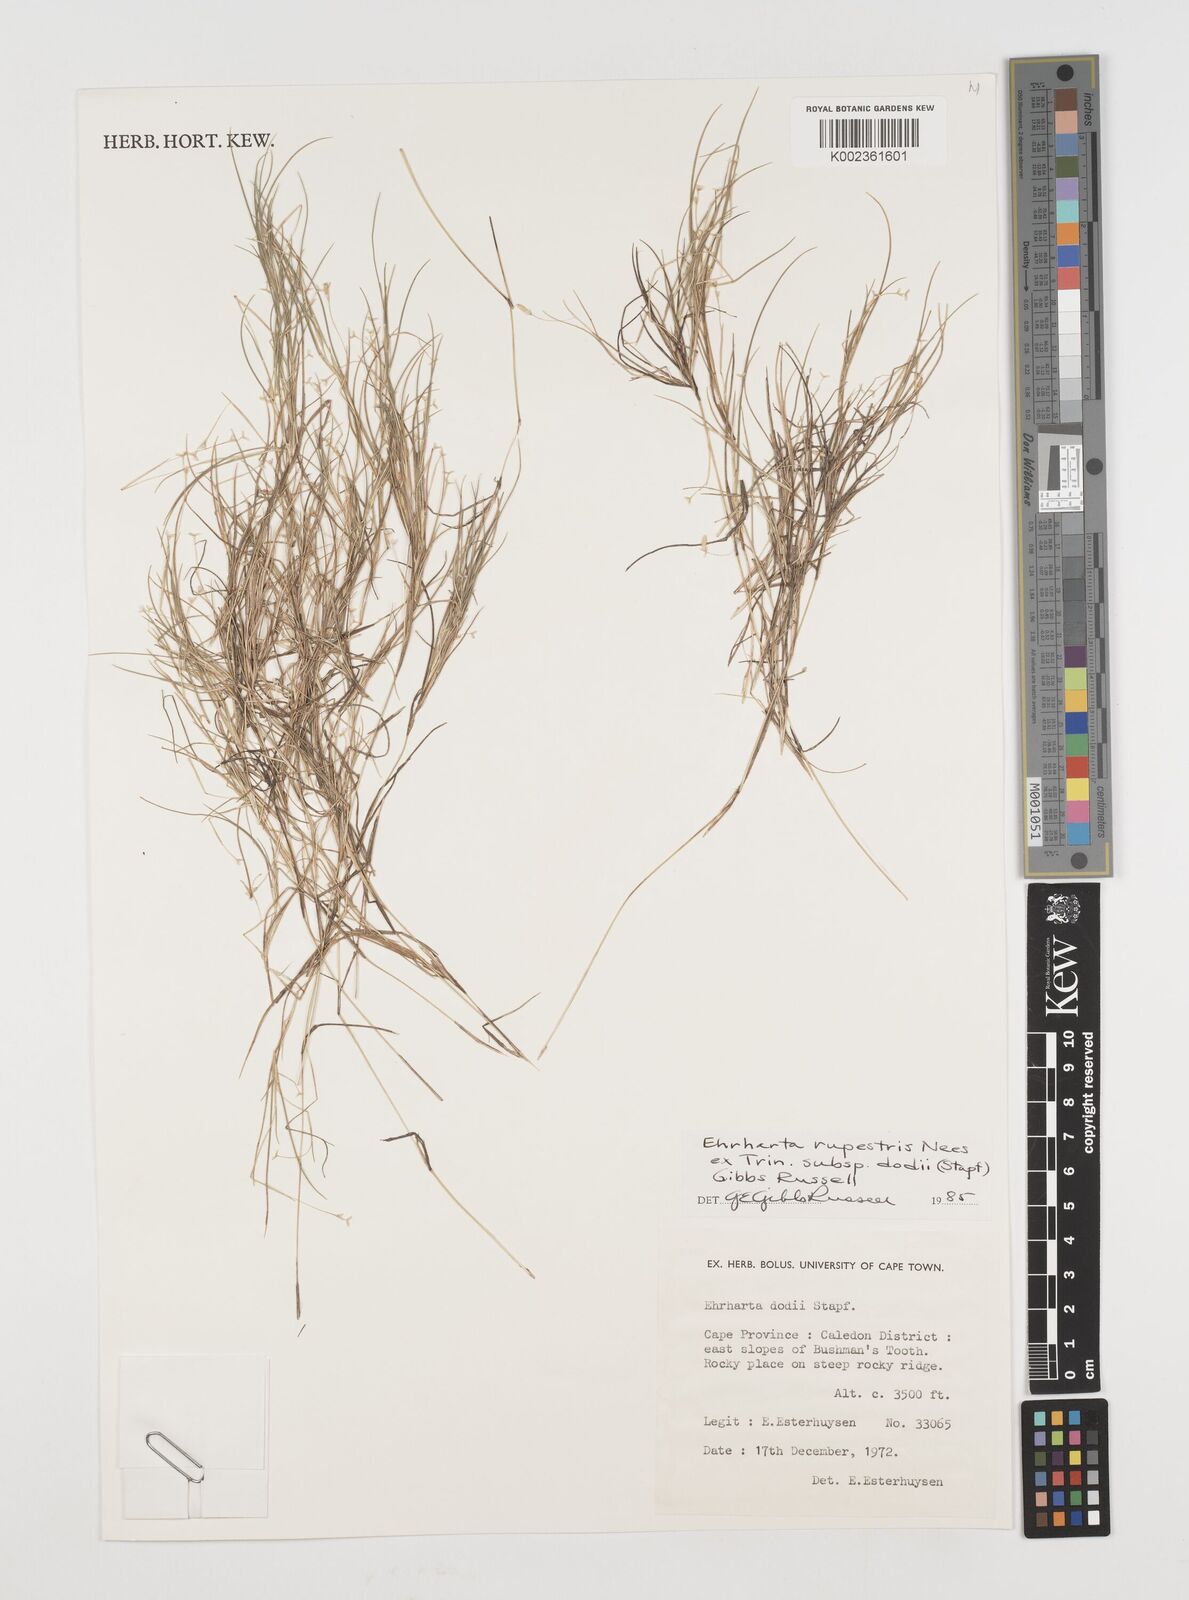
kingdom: Plantae
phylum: Tracheophyta
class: Liliopsida
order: Poales
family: Poaceae
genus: Ehrharta
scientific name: Ehrharta rupestris
